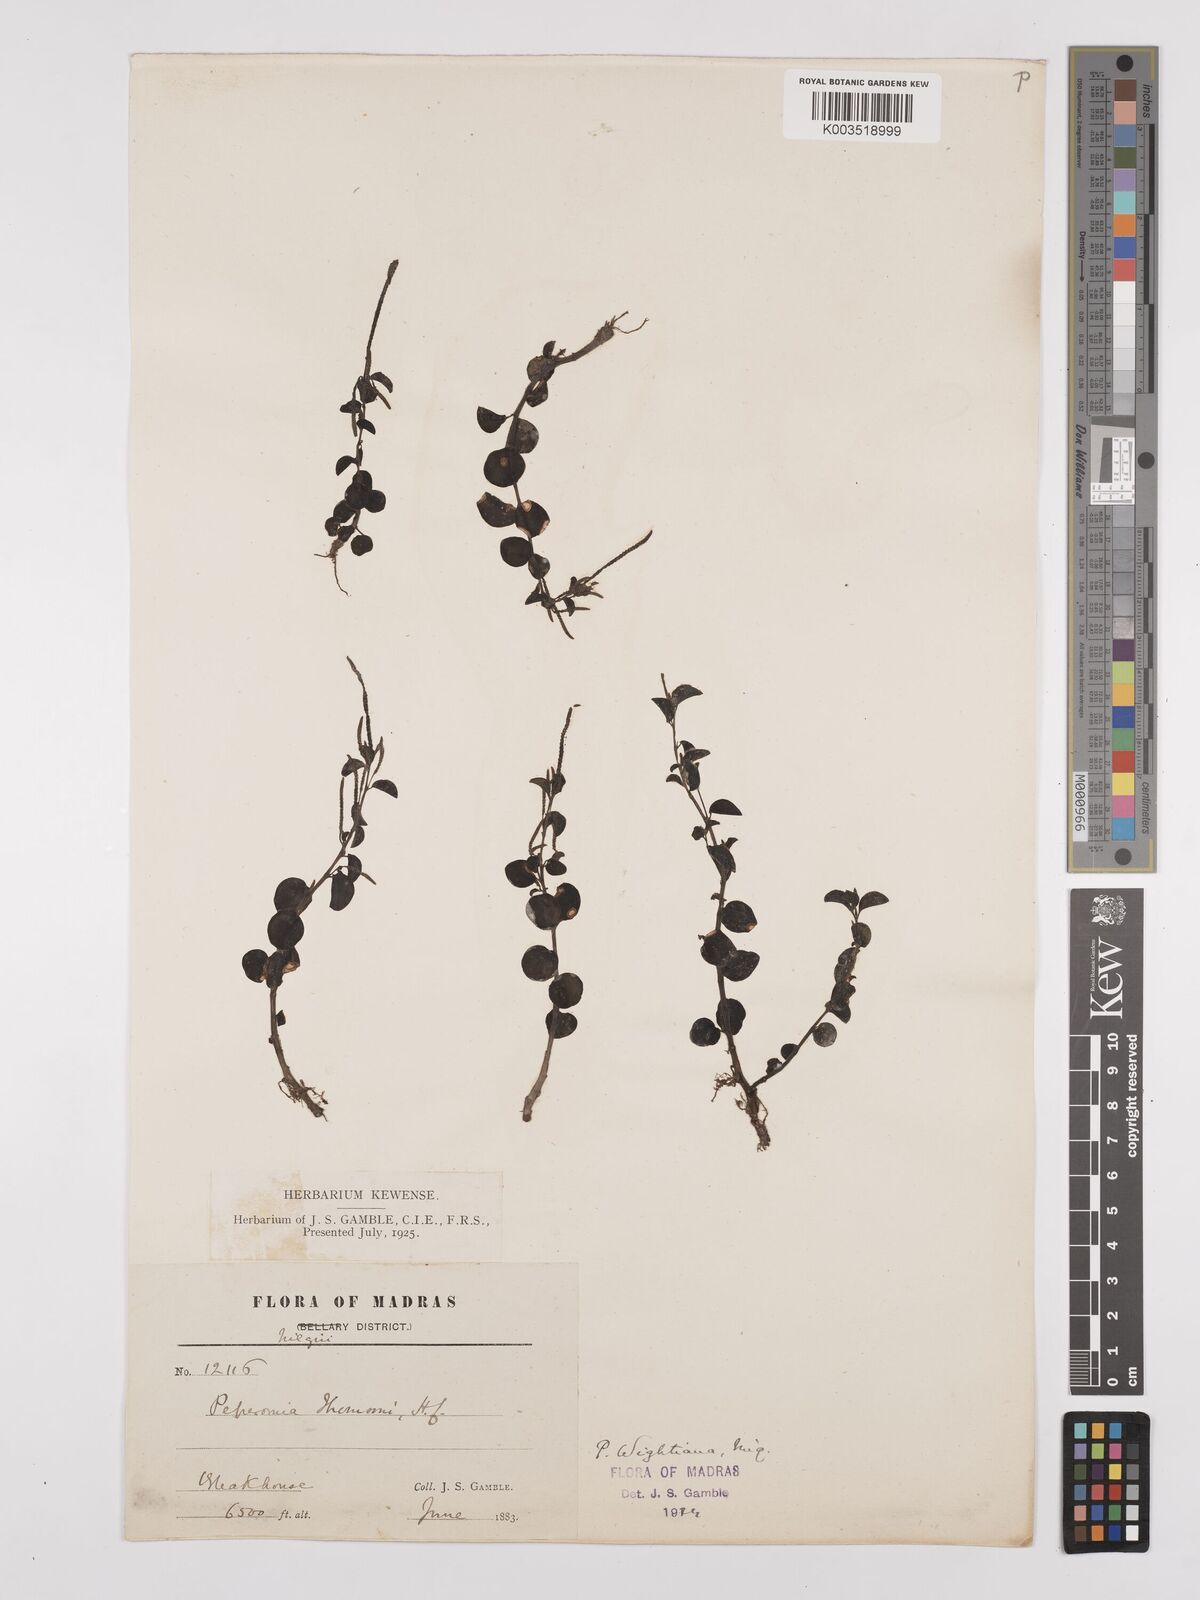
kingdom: Plantae
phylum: Tracheophyta
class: Magnoliopsida
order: Piperales
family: Piperaceae
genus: Peperomia
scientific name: Peperomia wightiana
